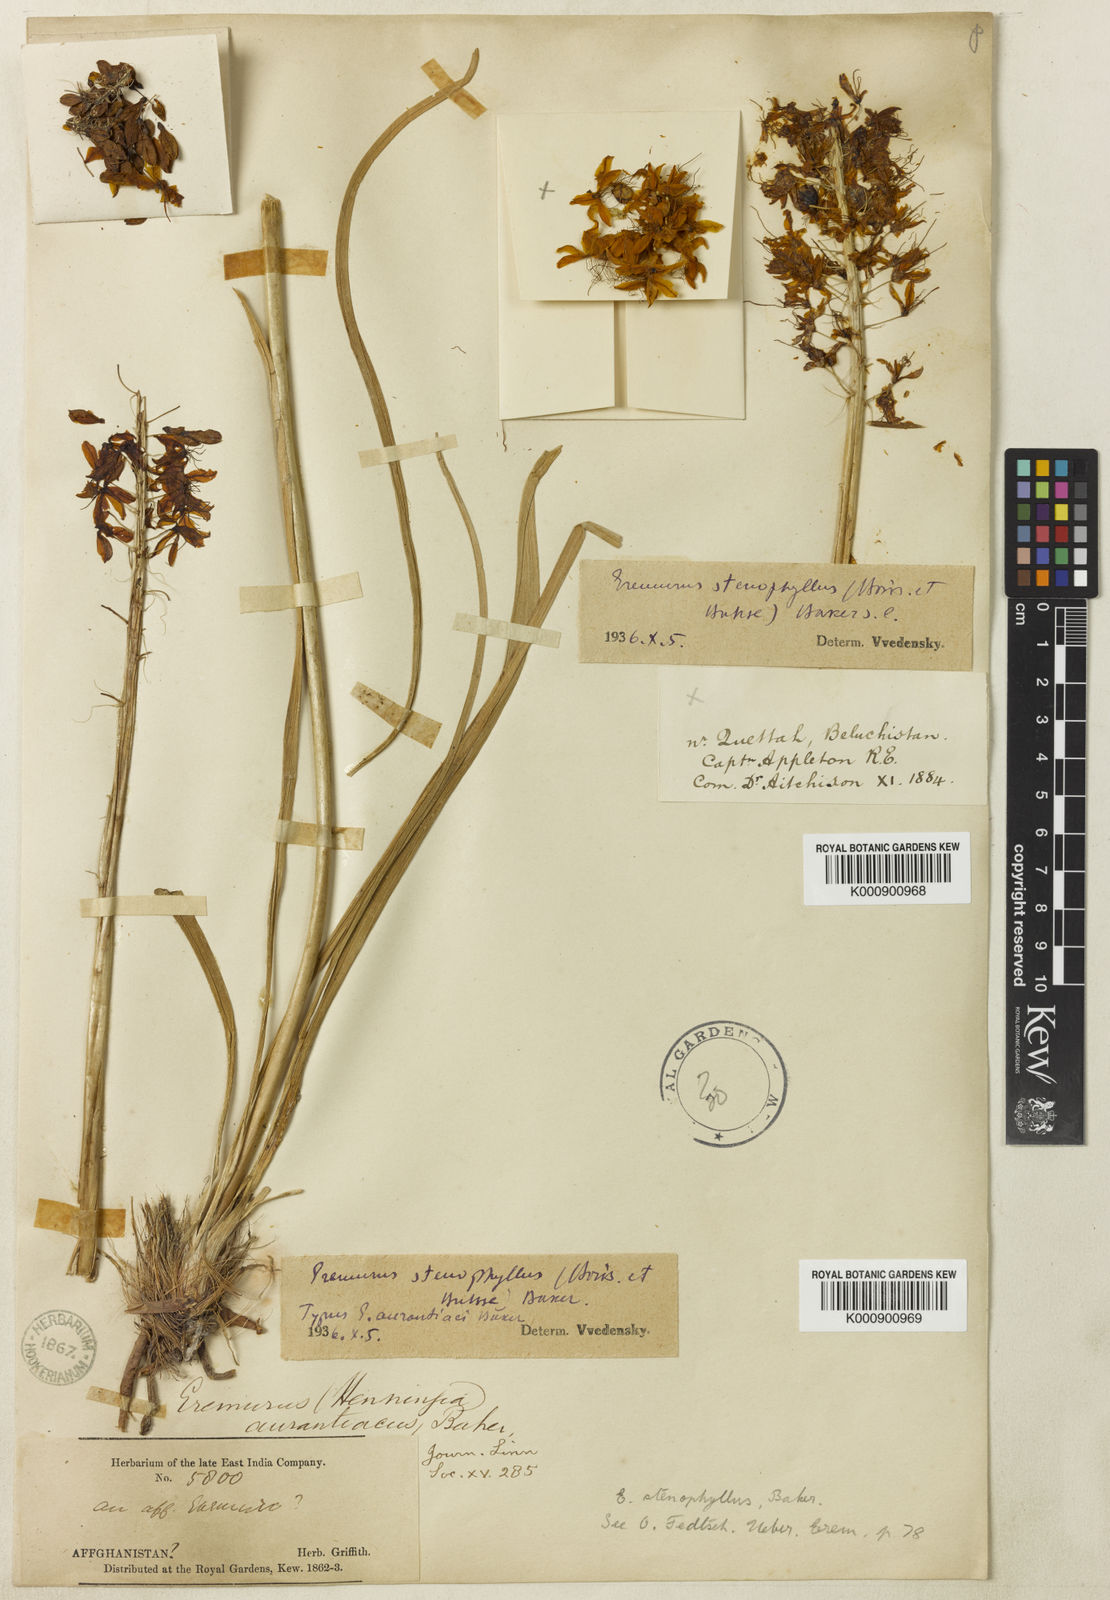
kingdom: Plantae
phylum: Tracheophyta
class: Liliopsida
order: Asparagales
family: Asphodelaceae
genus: Eremurus
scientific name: Eremurus stenophyllus
